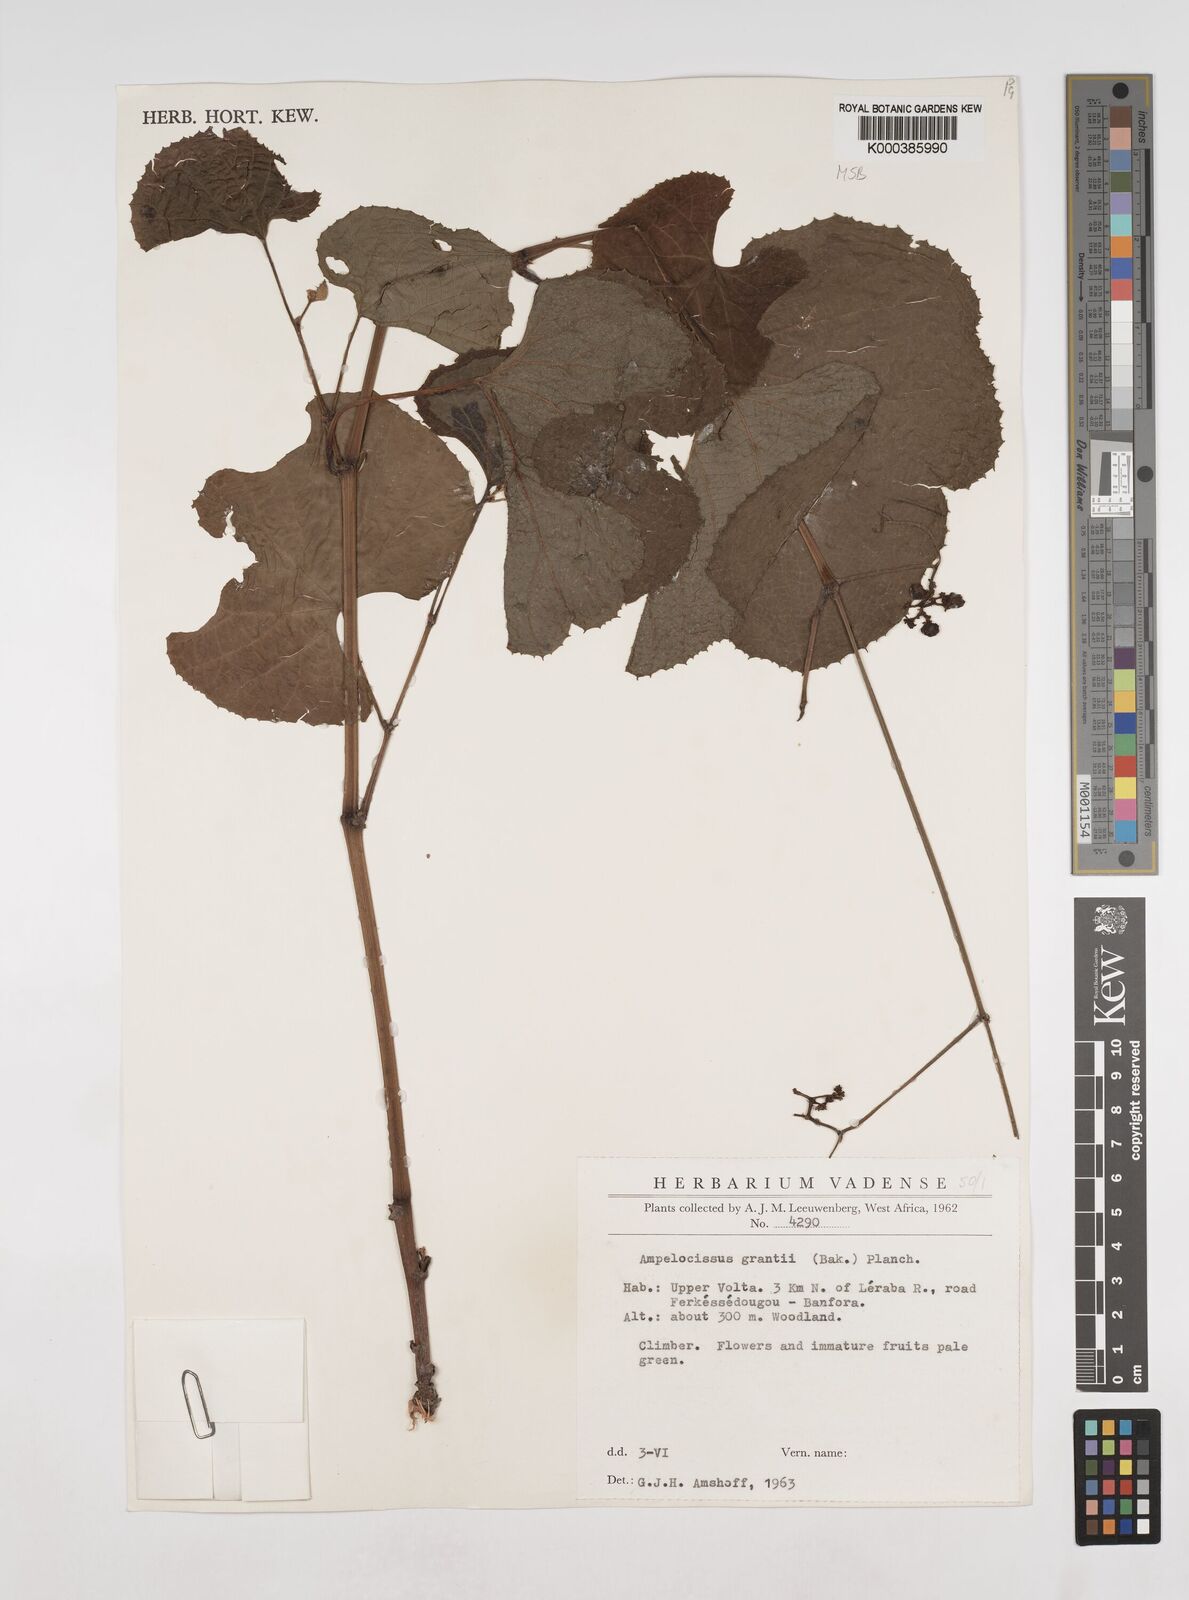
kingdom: Plantae
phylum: Tracheophyta
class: Magnoliopsida
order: Vitales
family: Vitaceae
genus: Ampelocissus
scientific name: Ampelocissus africana
